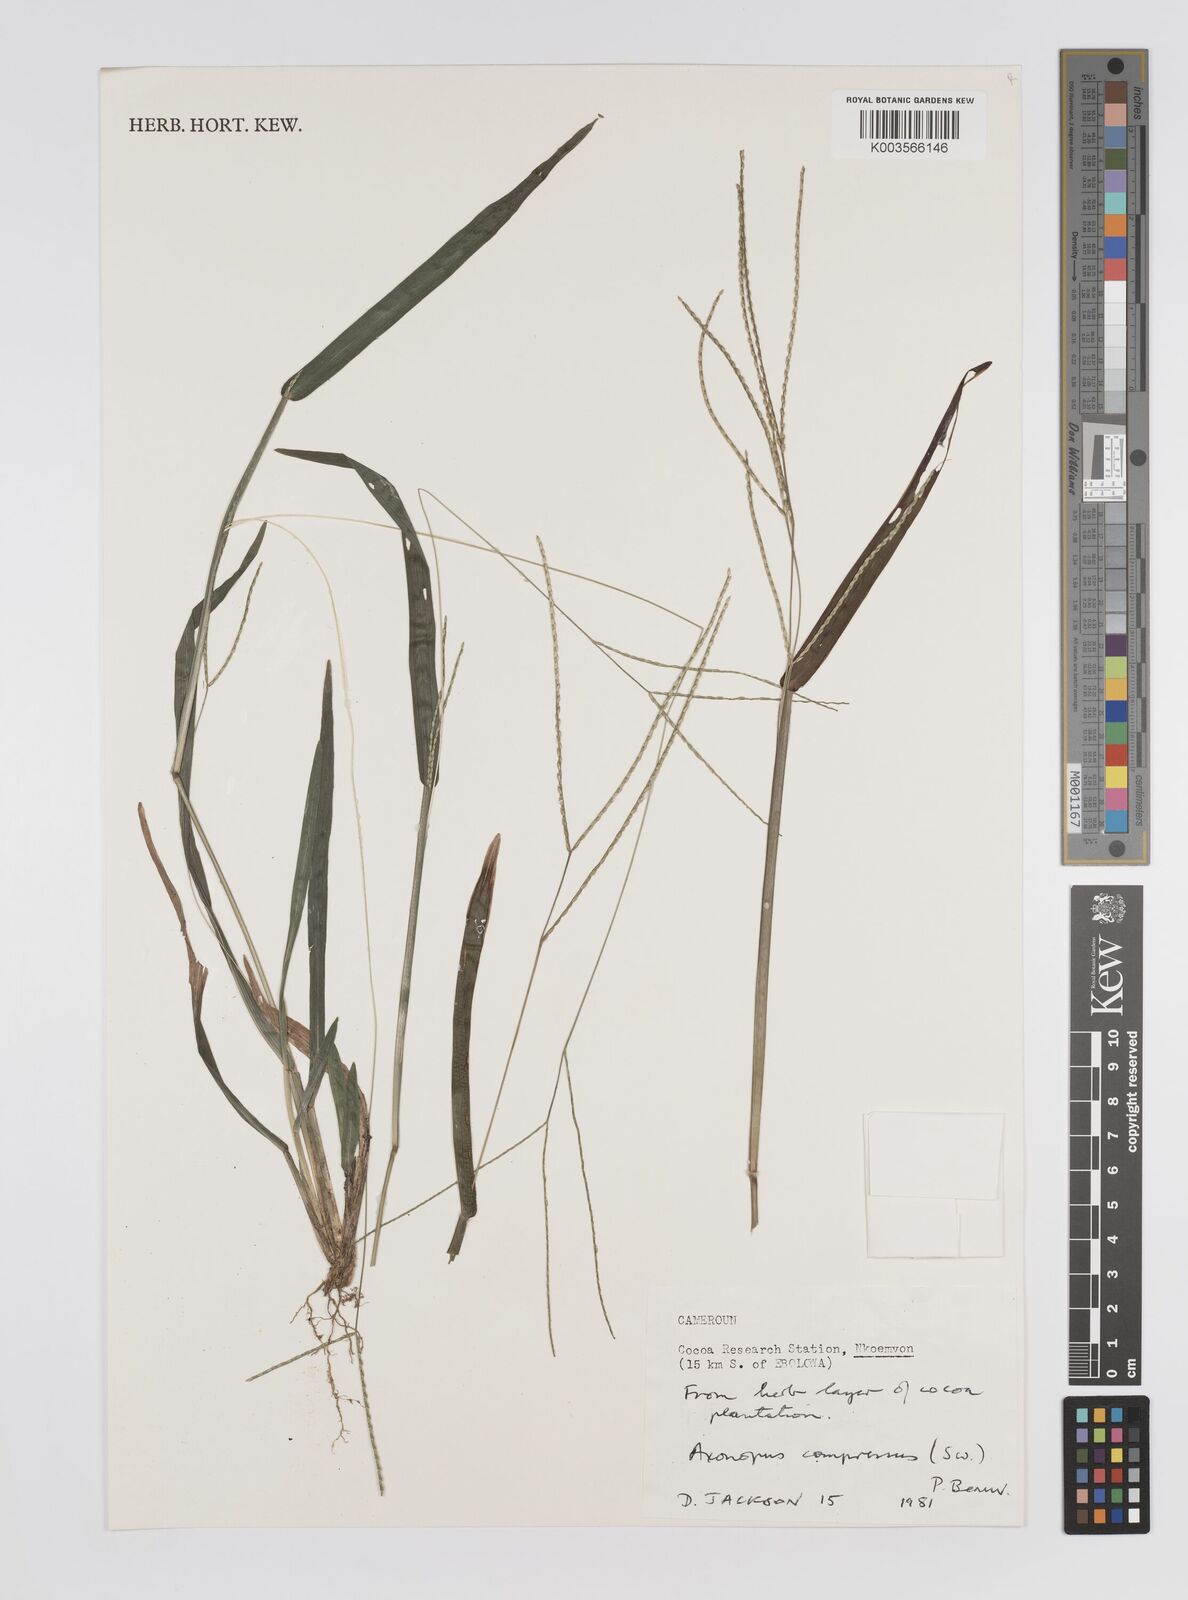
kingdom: Plantae
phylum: Tracheophyta
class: Liliopsida
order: Poales
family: Poaceae
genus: Axonopus
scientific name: Axonopus compressus
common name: American carpet grass
